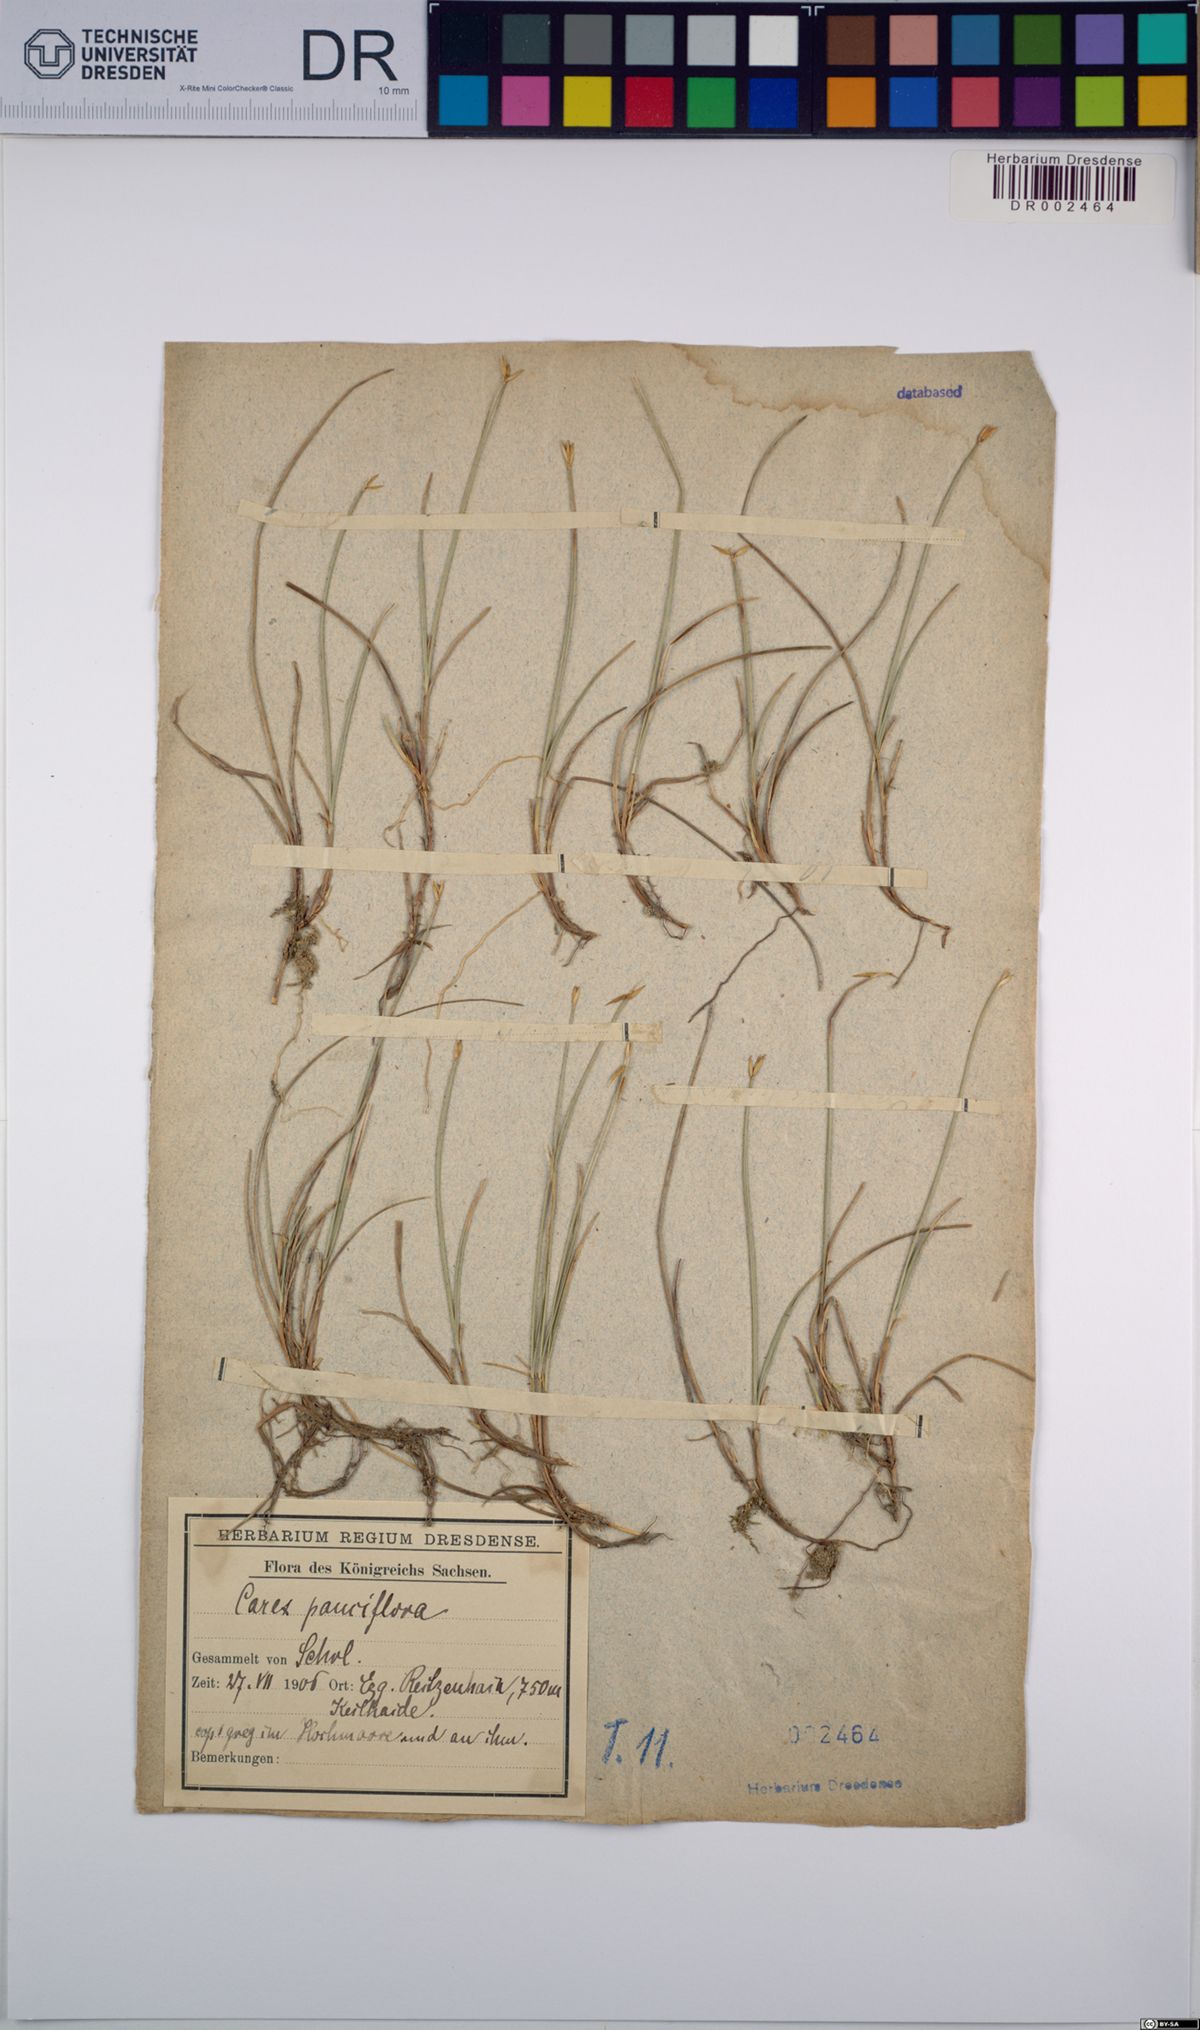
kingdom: Plantae
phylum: Tracheophyta
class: Liliopsida
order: Poales
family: Cyperaceae
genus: Carex
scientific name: Carex pauciflora
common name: Few-flowered sedge
